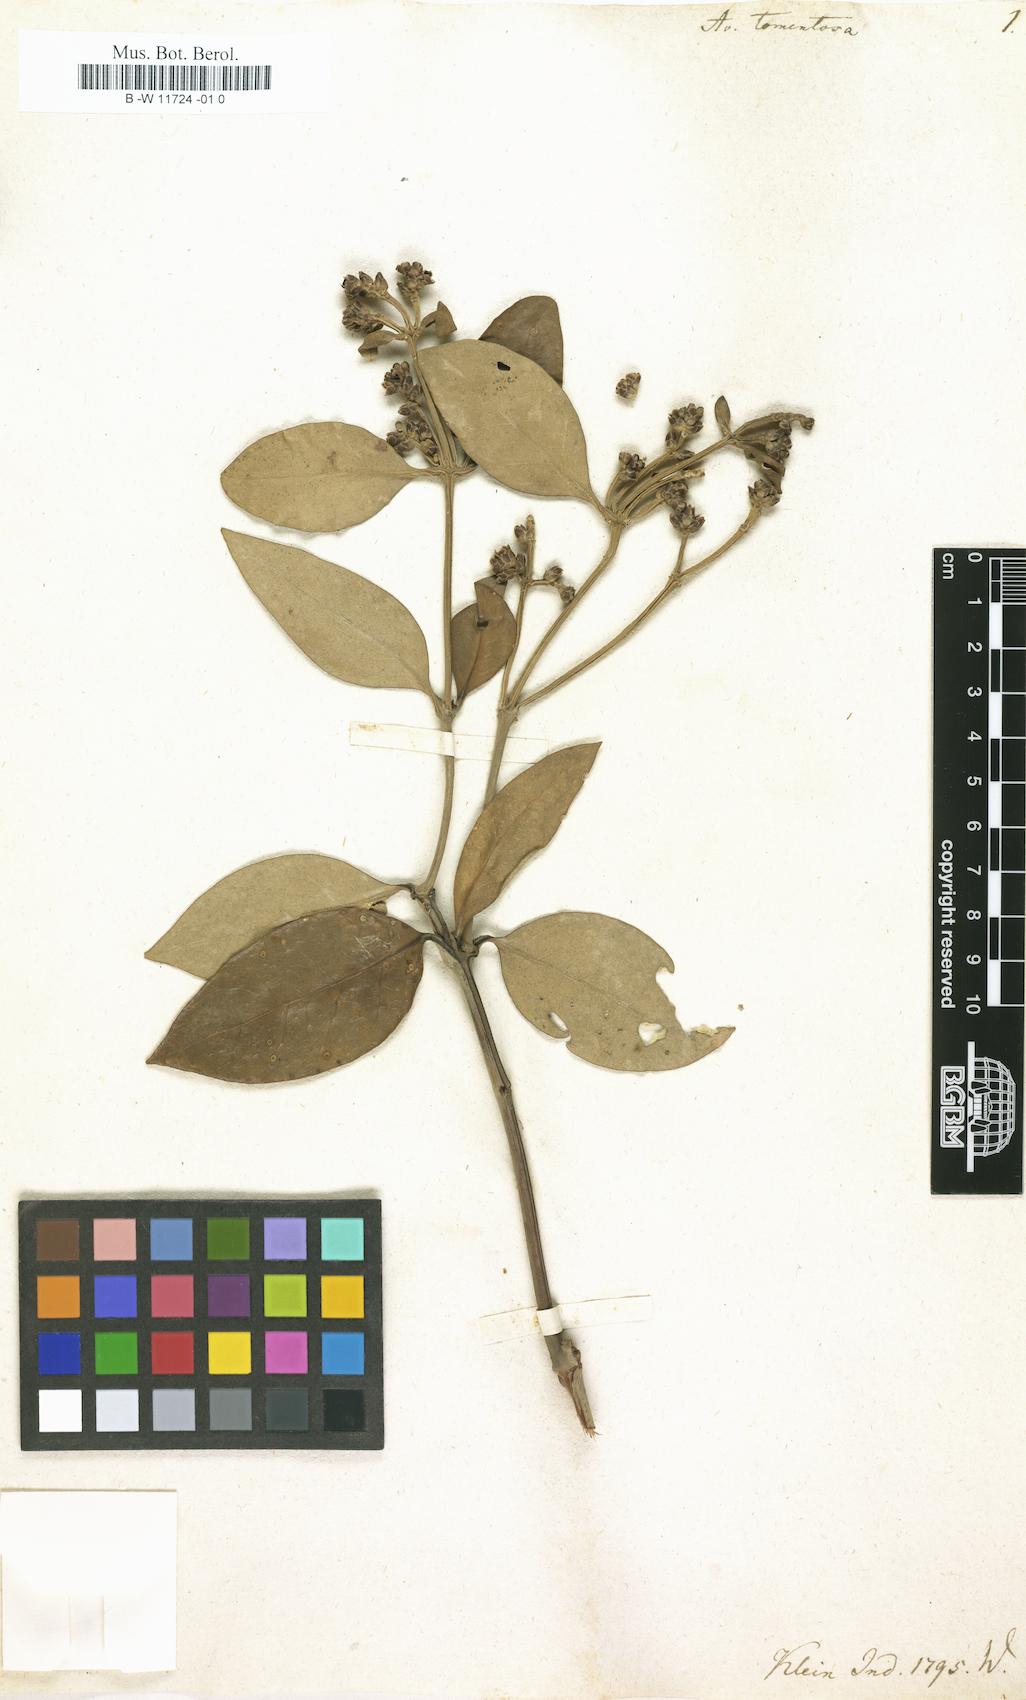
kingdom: Plantae
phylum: Tracheophyta
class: Magnoliopsida
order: Lamiales
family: Acanthaceae
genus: Avicennia
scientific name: Avicennia
